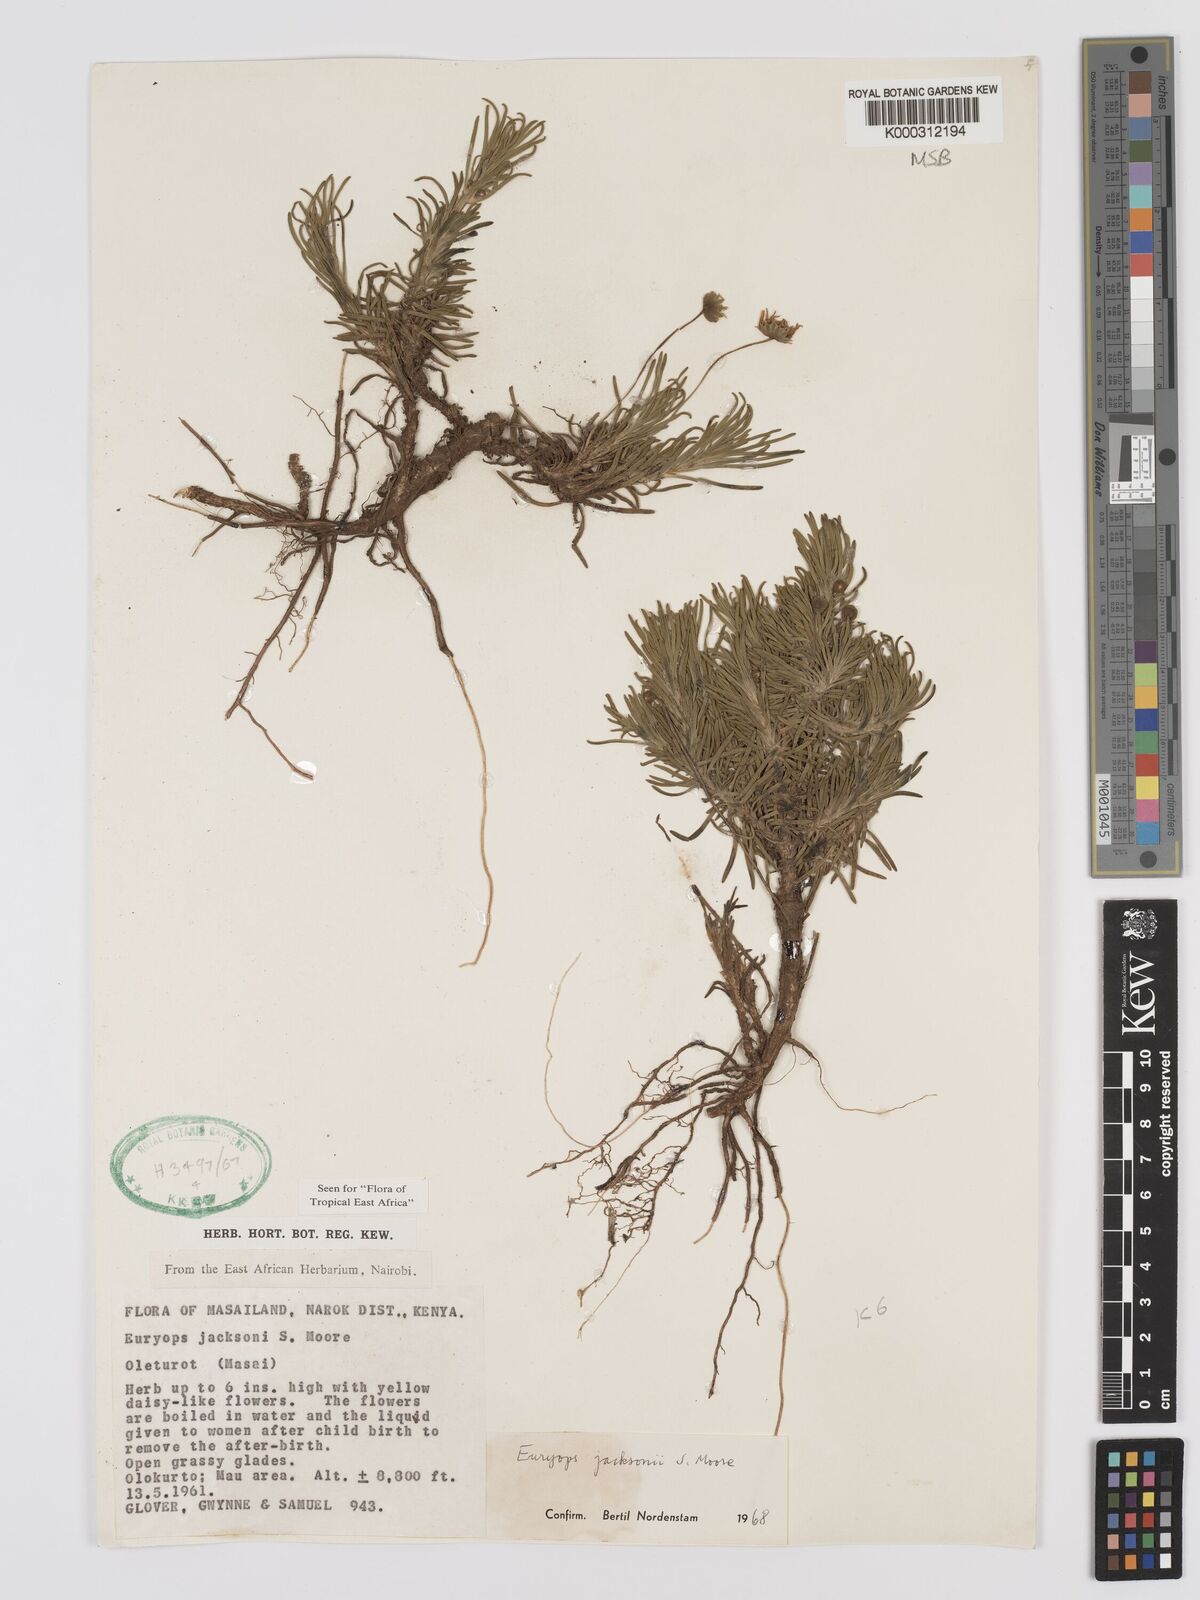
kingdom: Plantae
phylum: Tracheophyta
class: Magnoliopsida
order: Asterales
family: Asteraceae
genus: Euryops
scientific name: Euryops jacksonii
